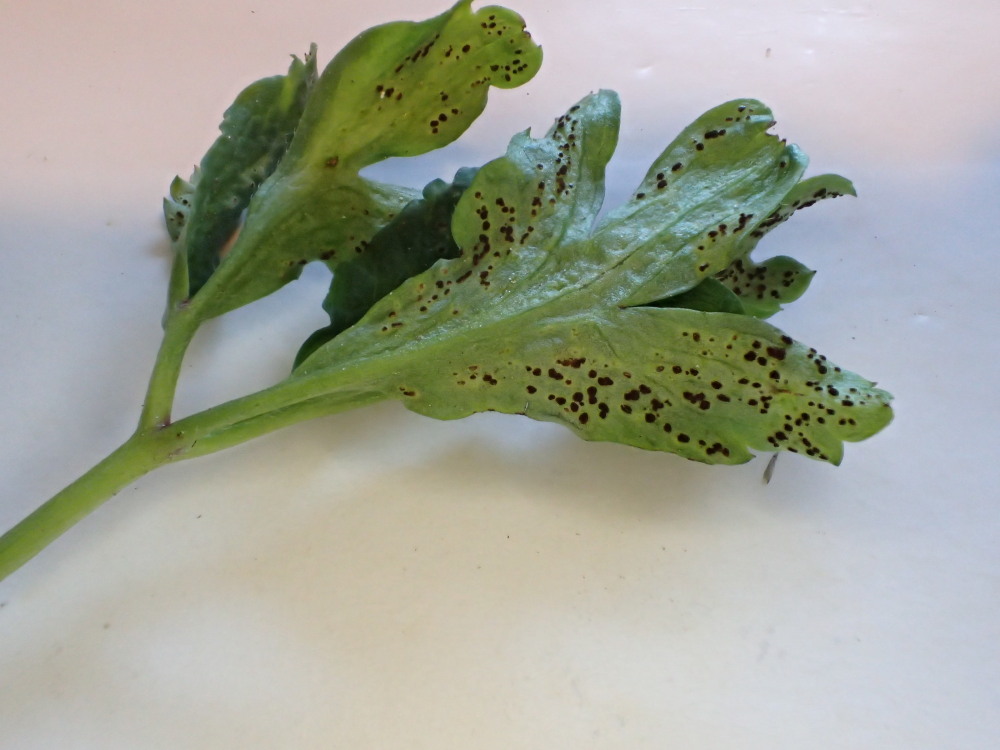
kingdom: Fungi
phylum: Basidiomycota
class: Pucciniomycetes
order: Pucciniales
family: Tranzscheliaceae
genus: Tranzschelia
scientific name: Tranzschelia anemones
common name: anemone-knæksporerust
